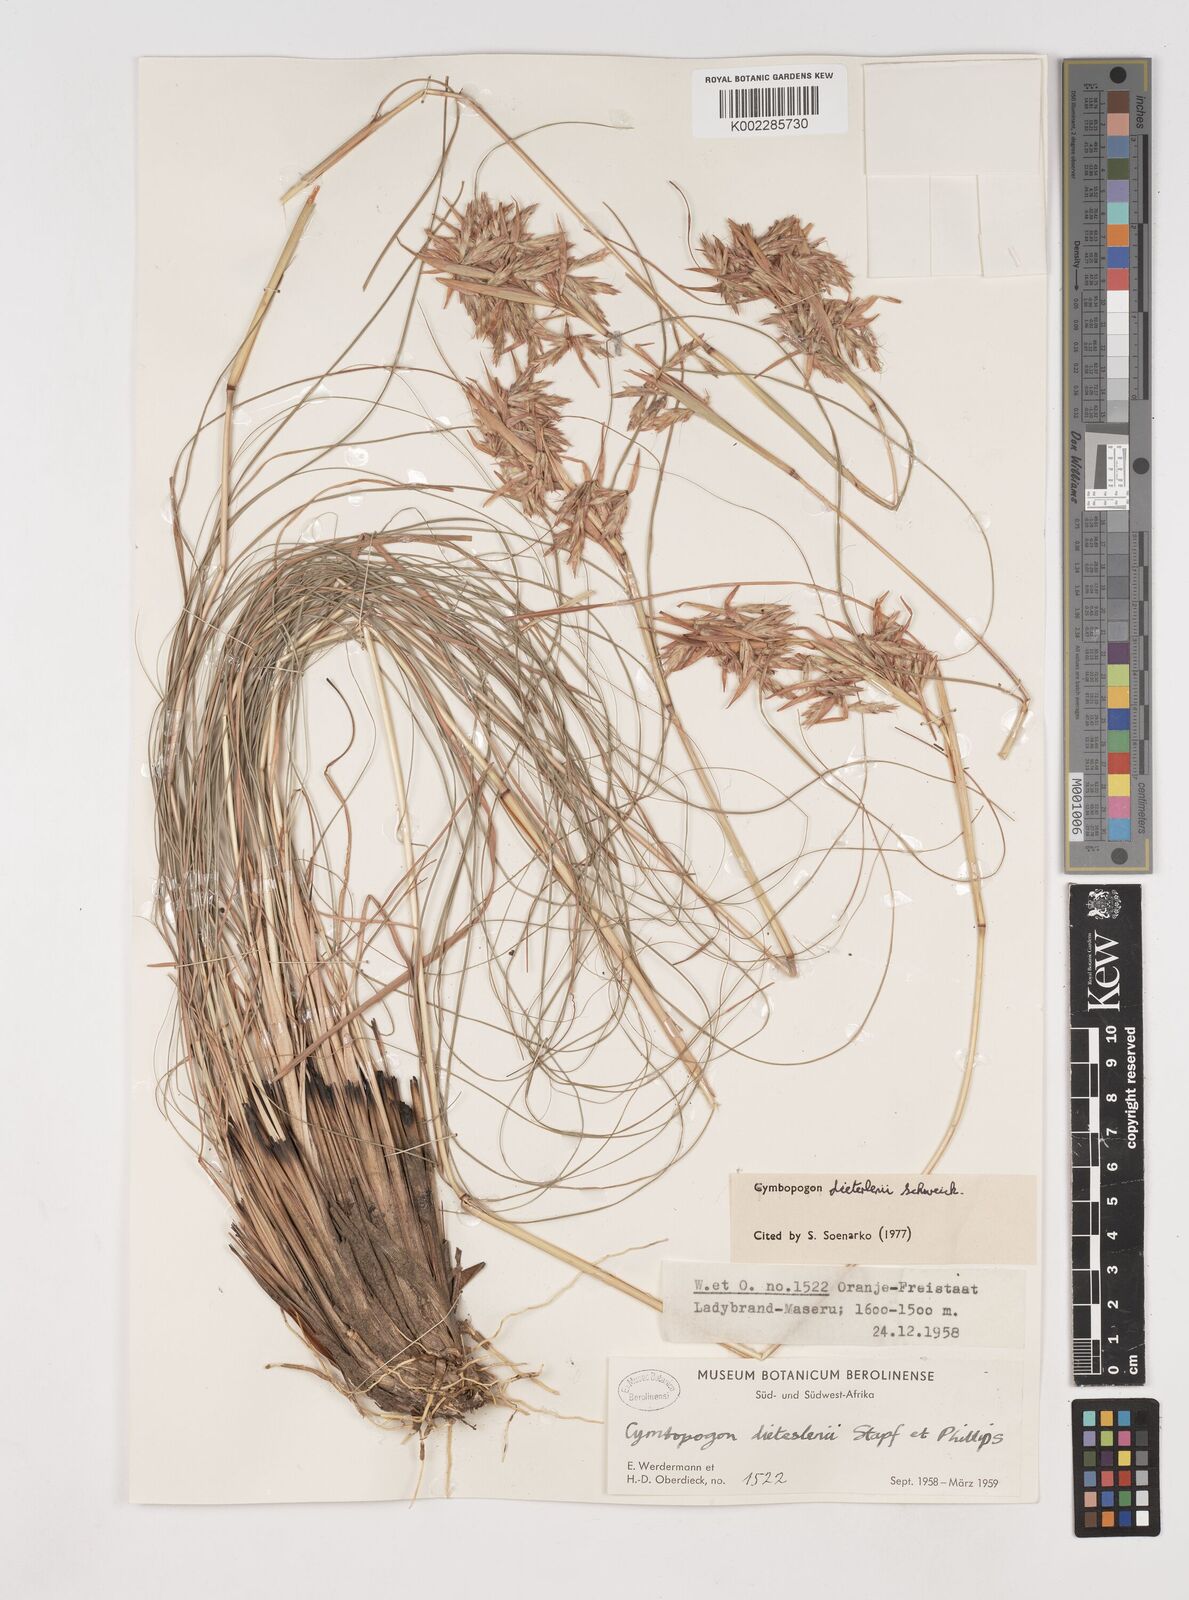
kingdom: Plantae
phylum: Tracheophyta
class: Liliopsida
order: Poales
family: Poaceae
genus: Cymbopogon
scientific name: Cymbopogon dieterlenii
